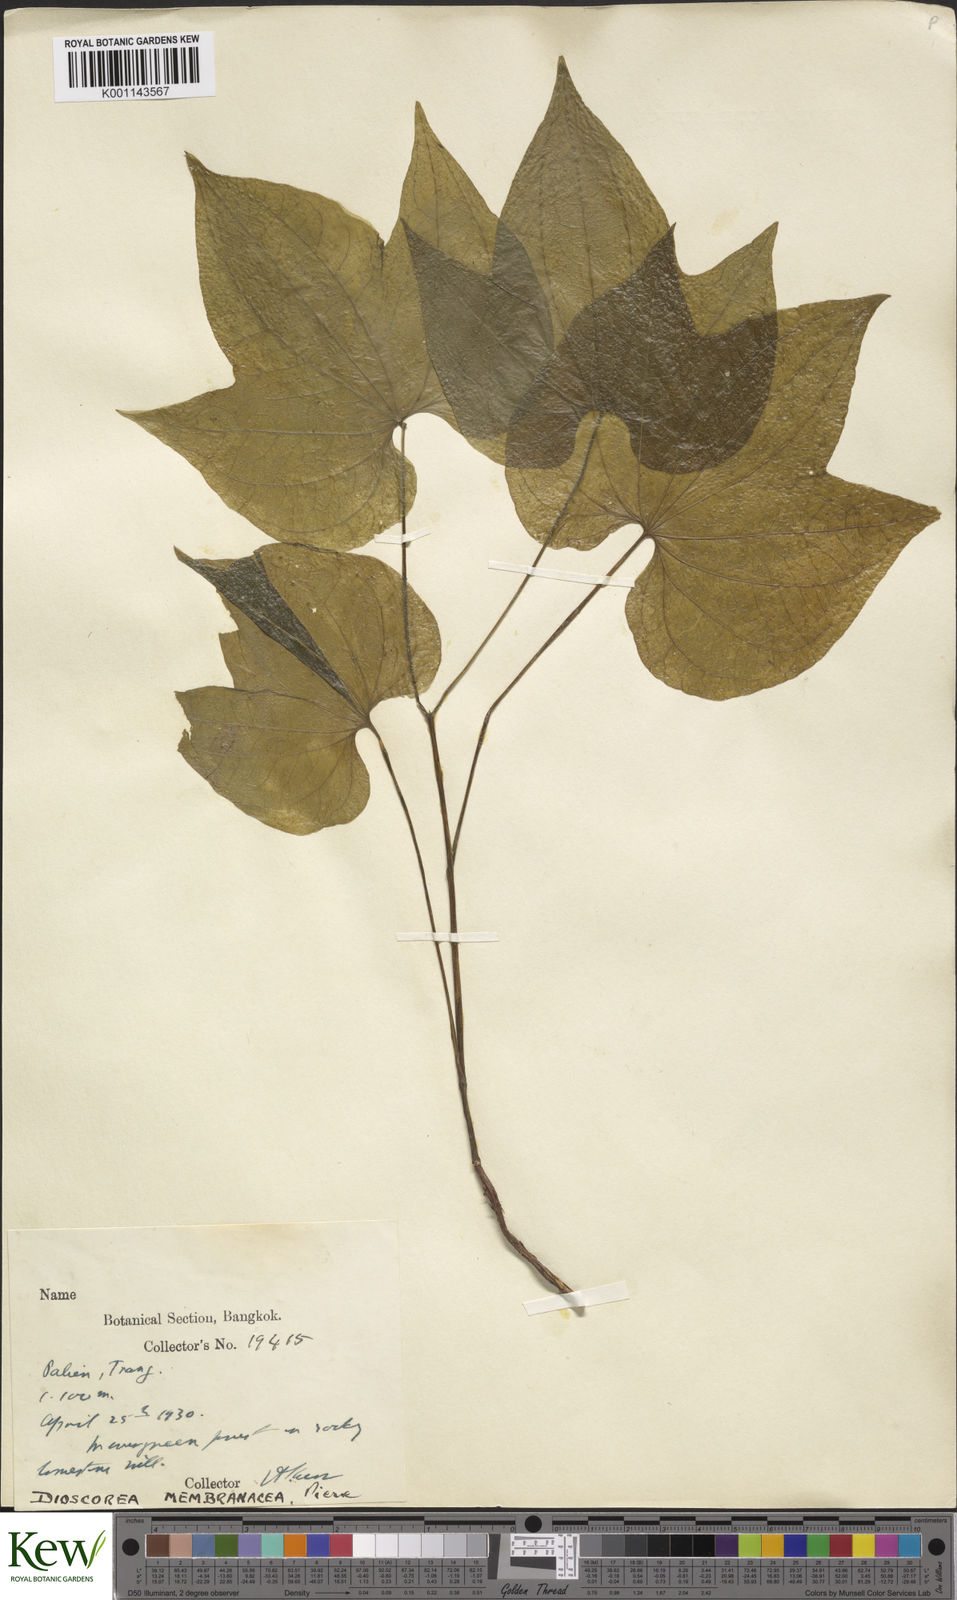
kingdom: Plantae
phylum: Tracheophyta
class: Liliopsida
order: Dioscoreales
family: Dioscoreaceae
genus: Dioscorea
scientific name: Dioscorea membranacea
